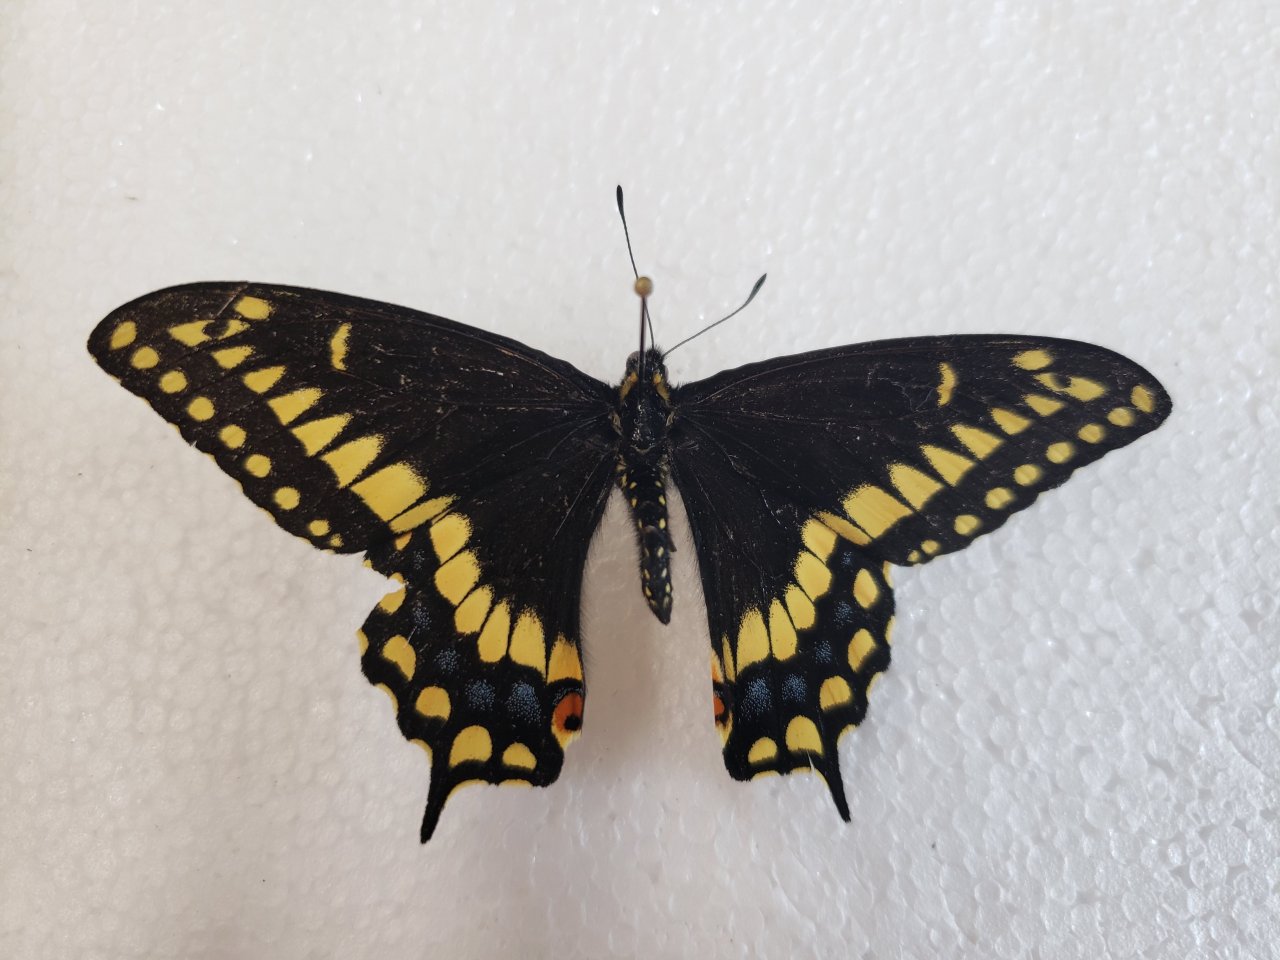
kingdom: Animalia
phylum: Arthropoda
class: Insecta
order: Lepidoptera
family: Papilionidae
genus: Papilio
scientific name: Papilio brevicauda
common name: Short-tailed Swallowtail
